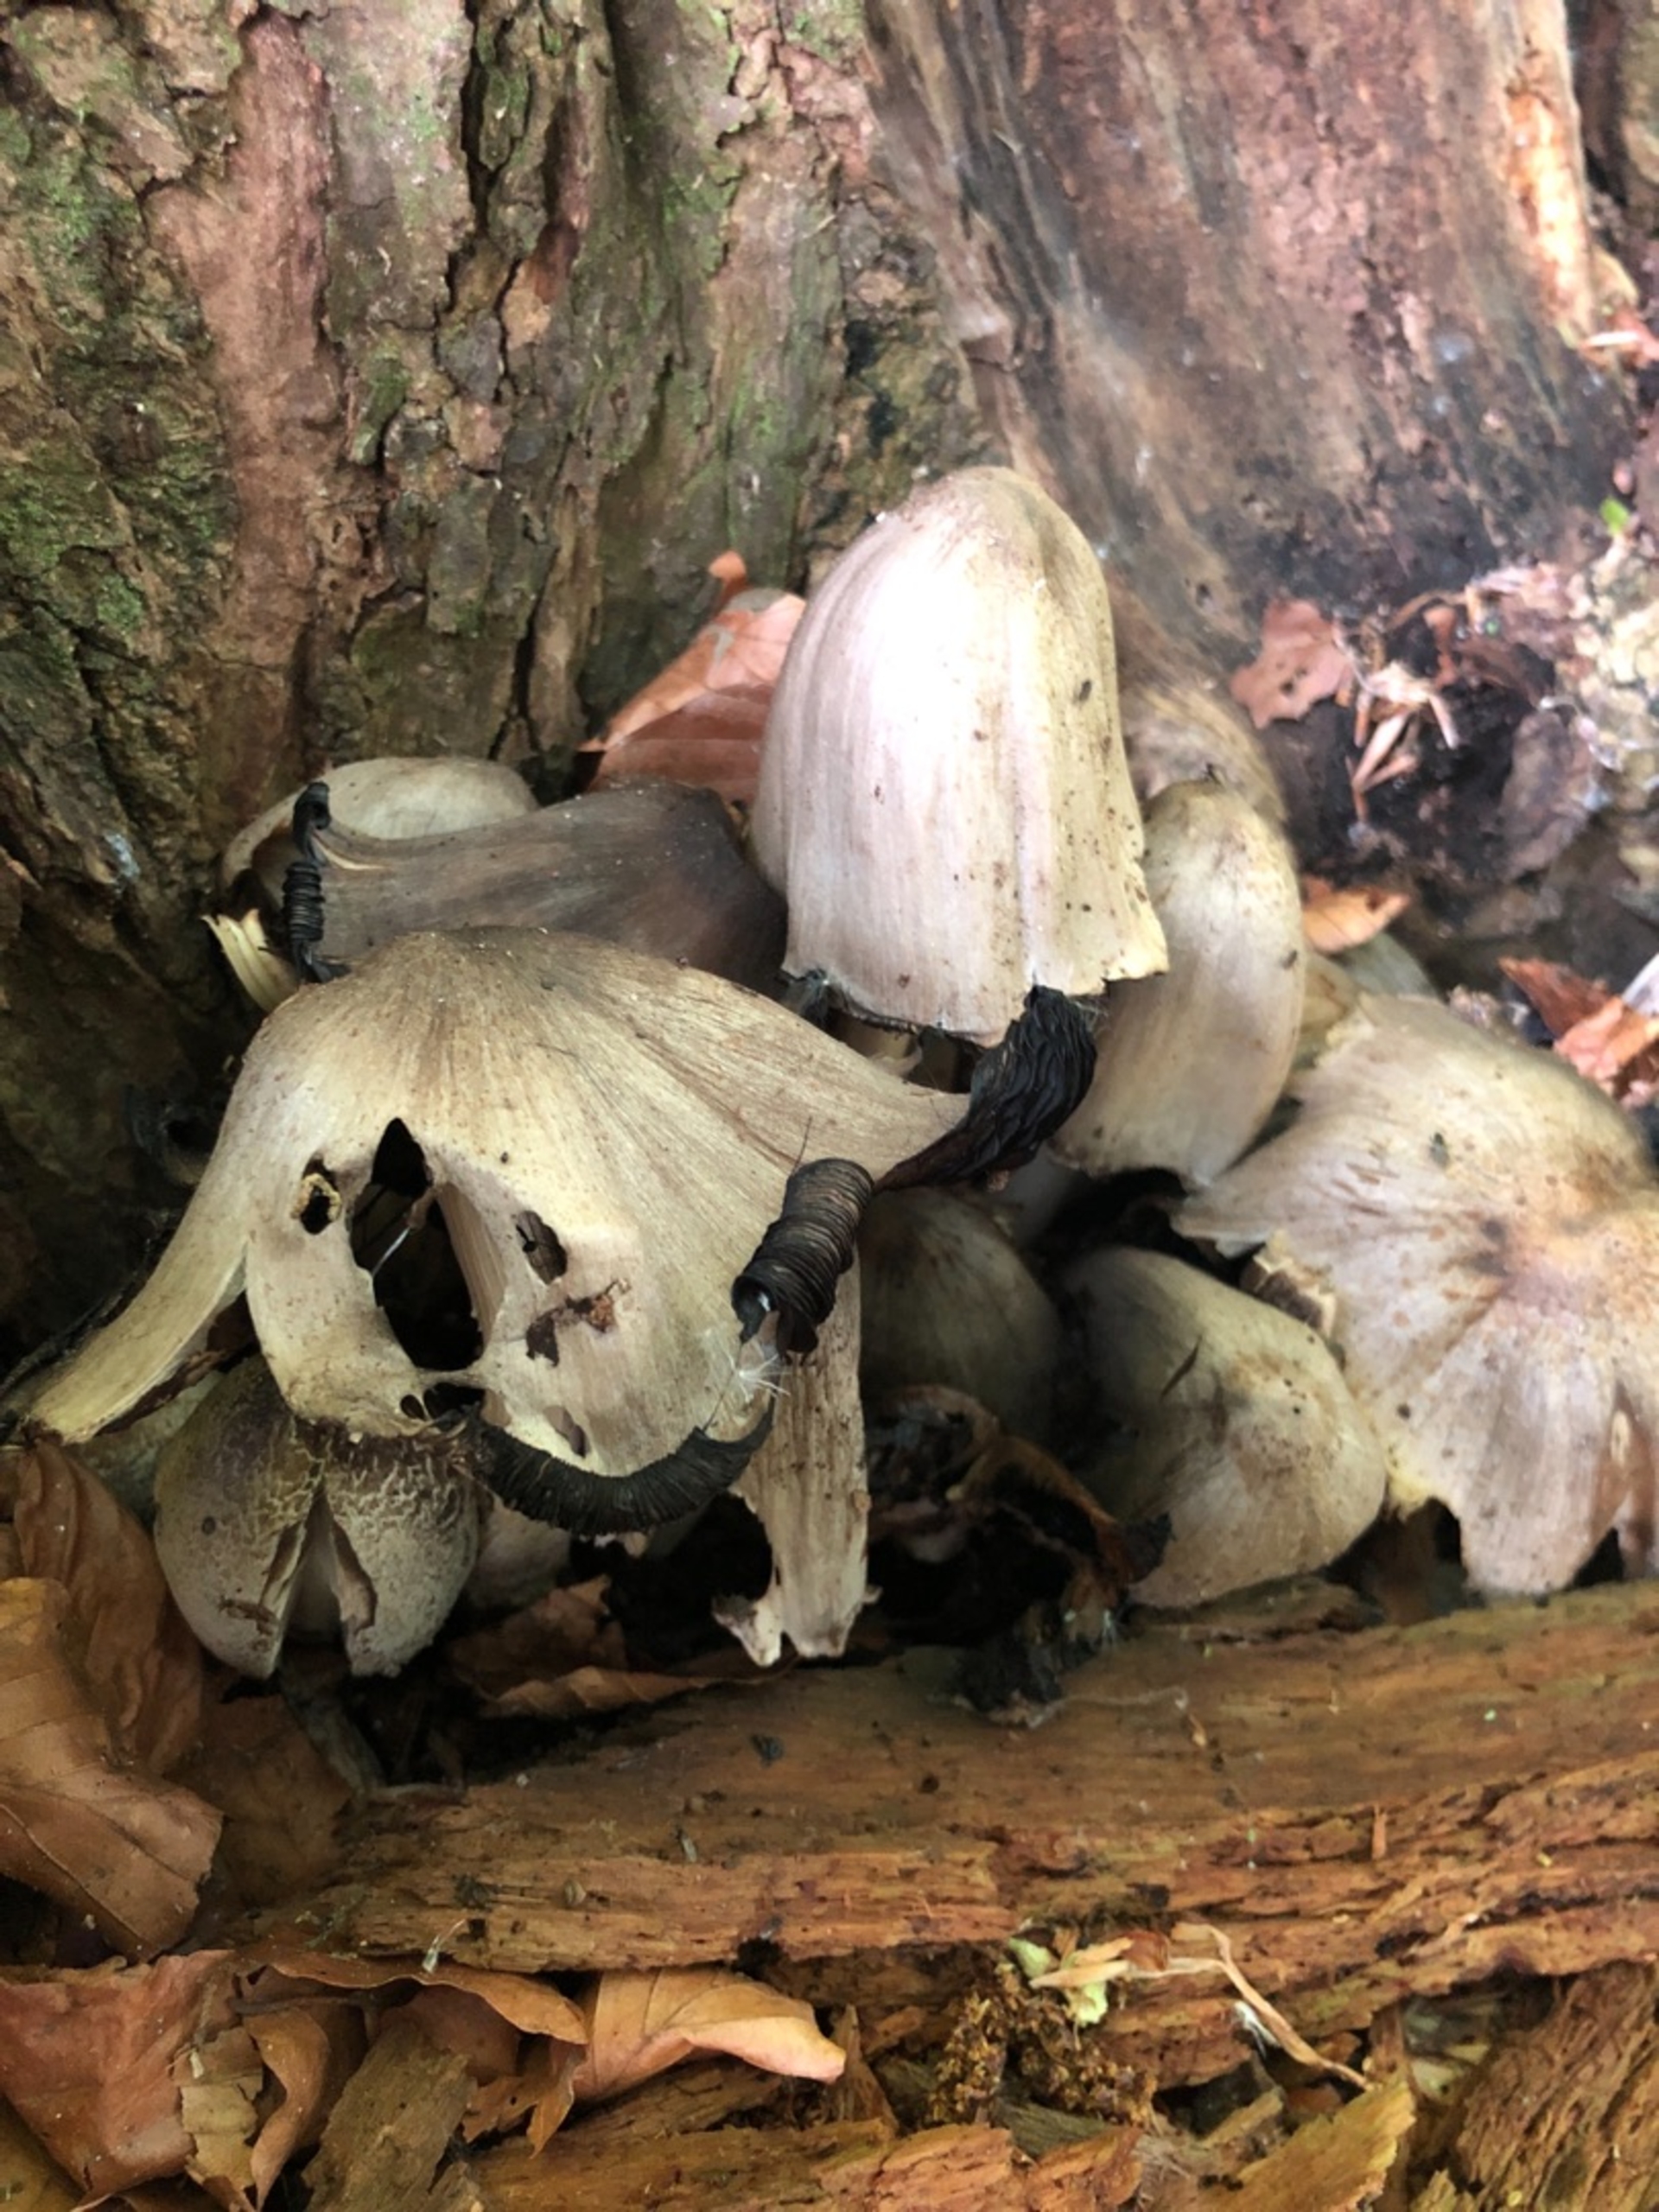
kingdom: Fungi
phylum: Basidiomycota
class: Agaricomycetes
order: Agaricales
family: Psathyrellaceae
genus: Coprinopsis
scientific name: Coprinopsis
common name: Blækhat
